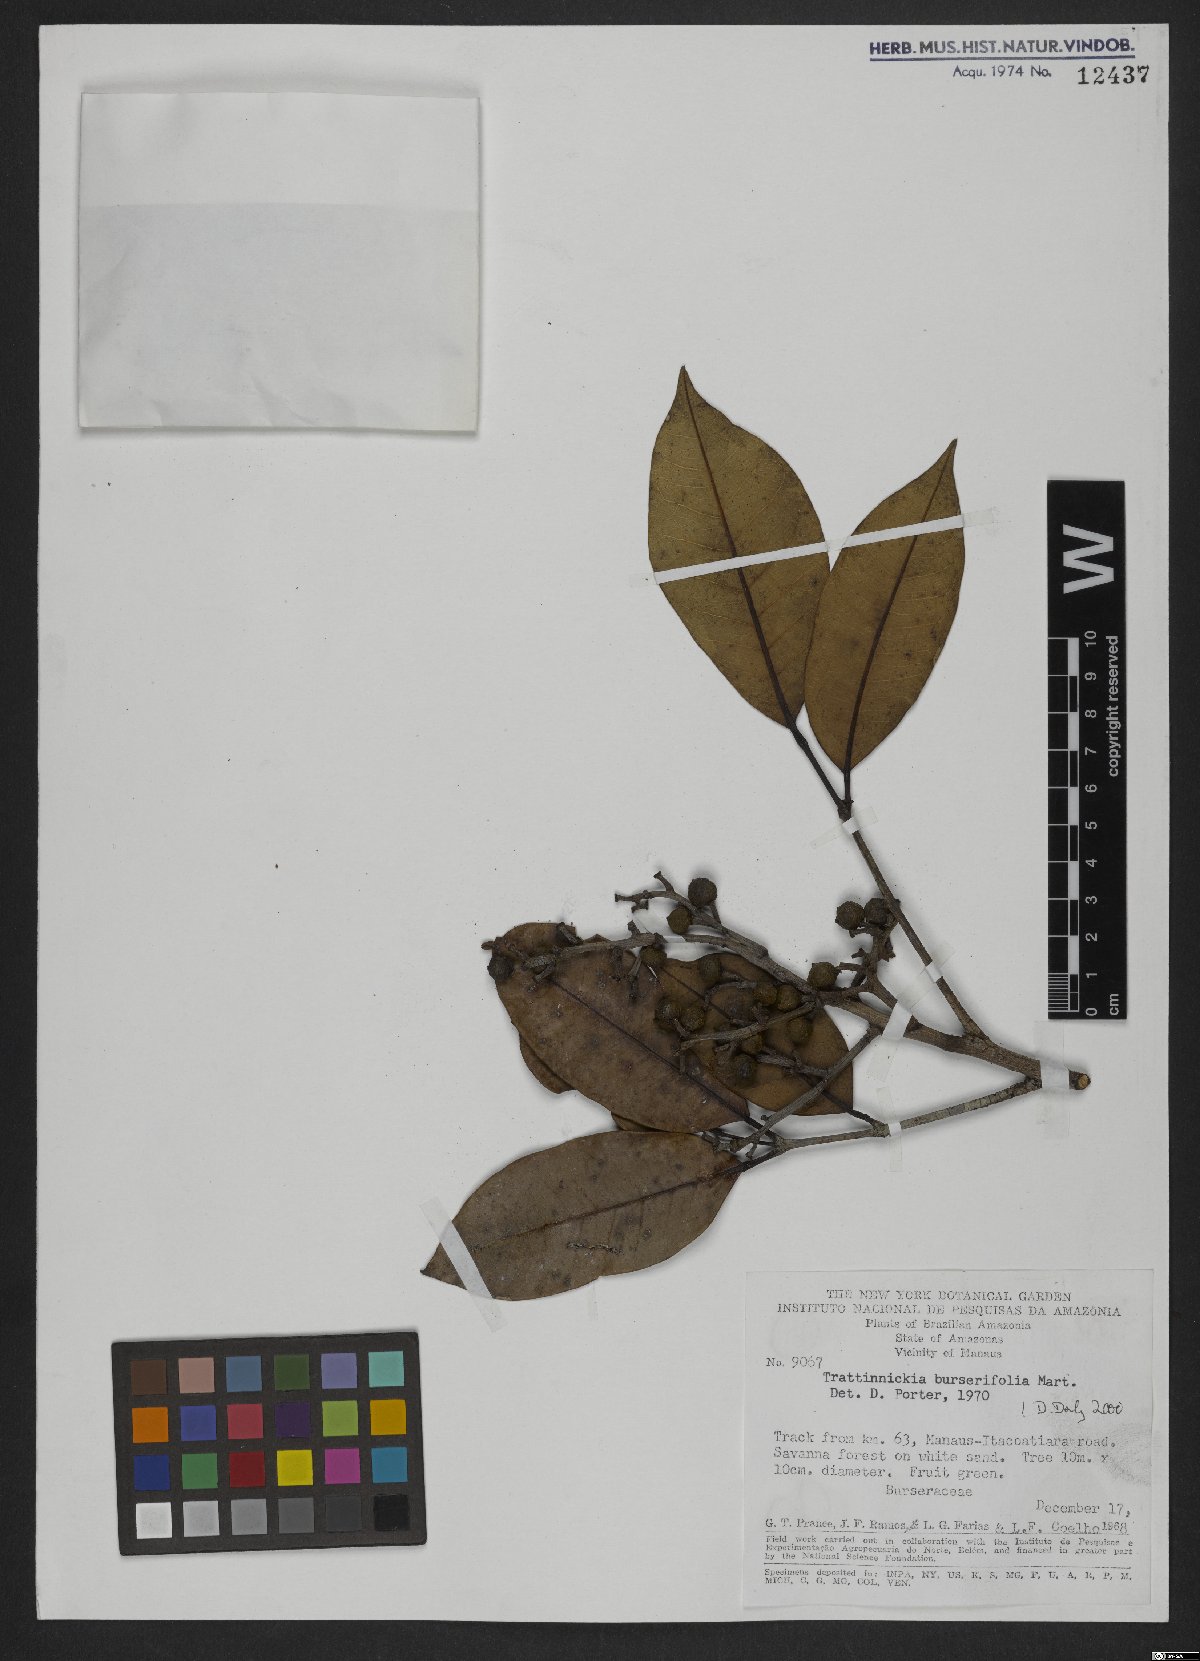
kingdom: Plantae
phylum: Tracheophyta
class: Magnoliopsida
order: Sapindales
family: Burseraceae
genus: Trattinnickia
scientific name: Trattinnickia burserifolia
